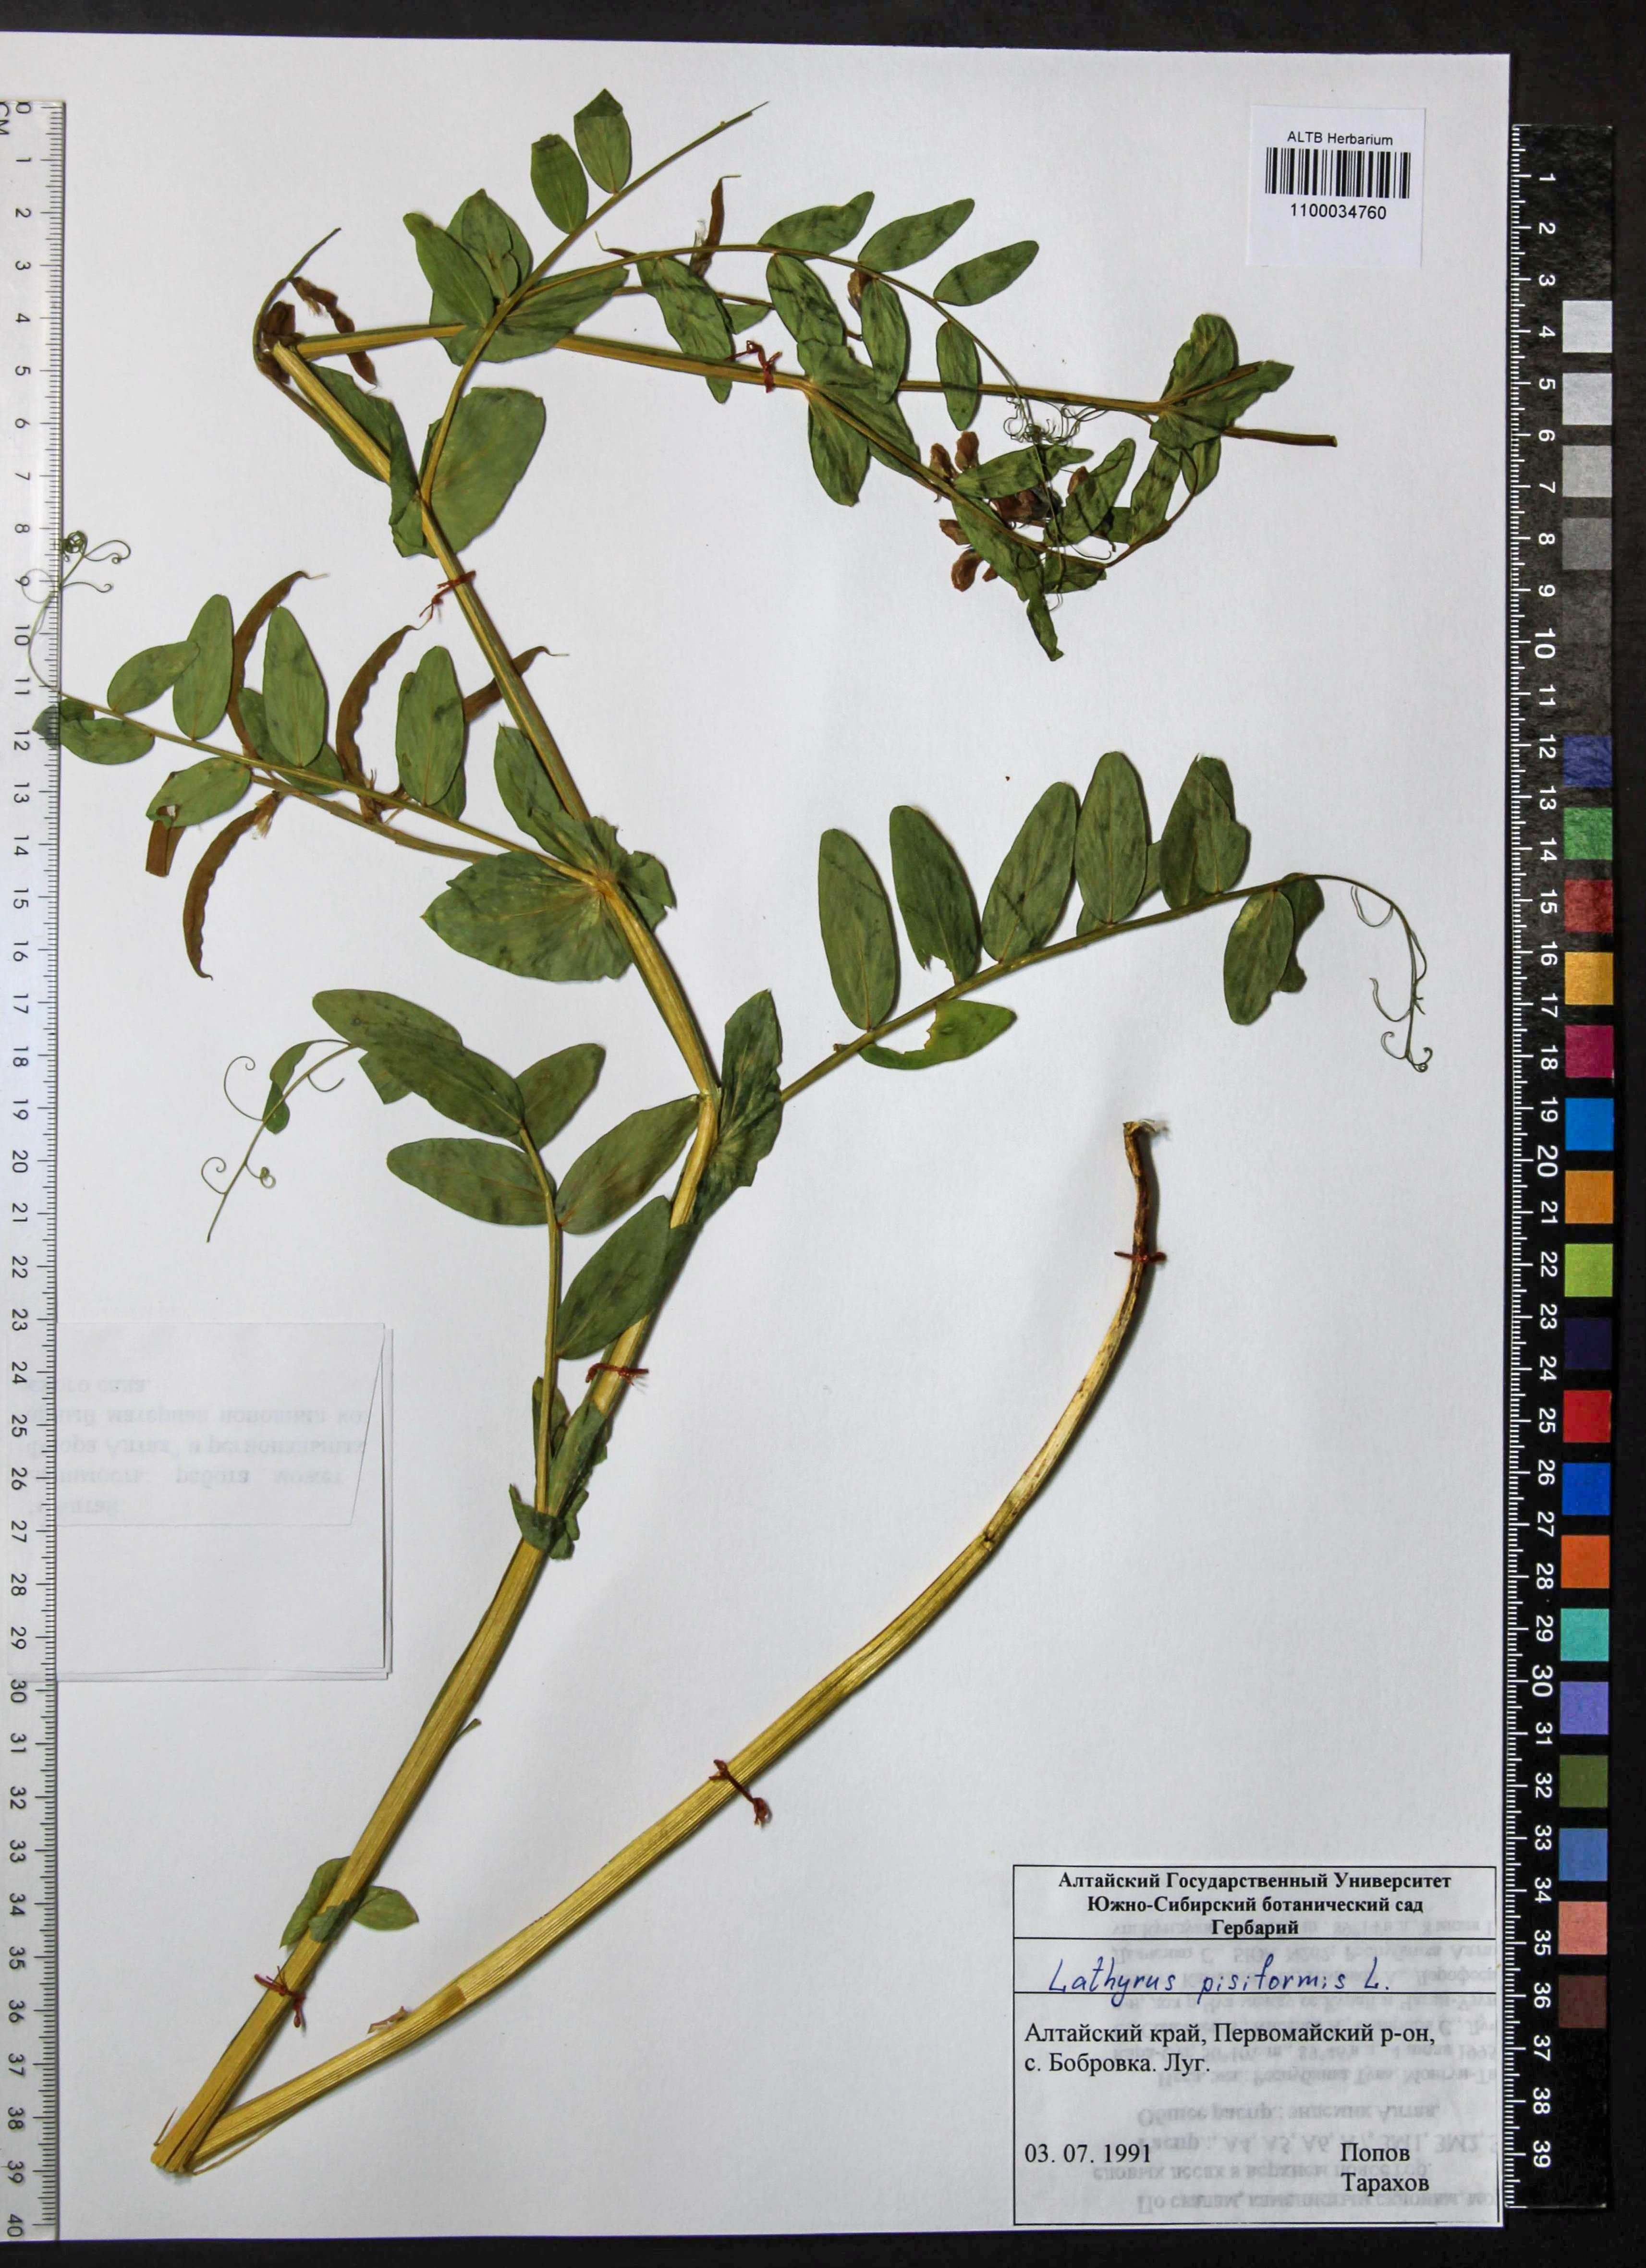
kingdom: Plantae
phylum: Tracheophyta
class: Magnoliopsida
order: Fabales
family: Fabaceae
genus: Lathyrus
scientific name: Lathyrus pisiformis
